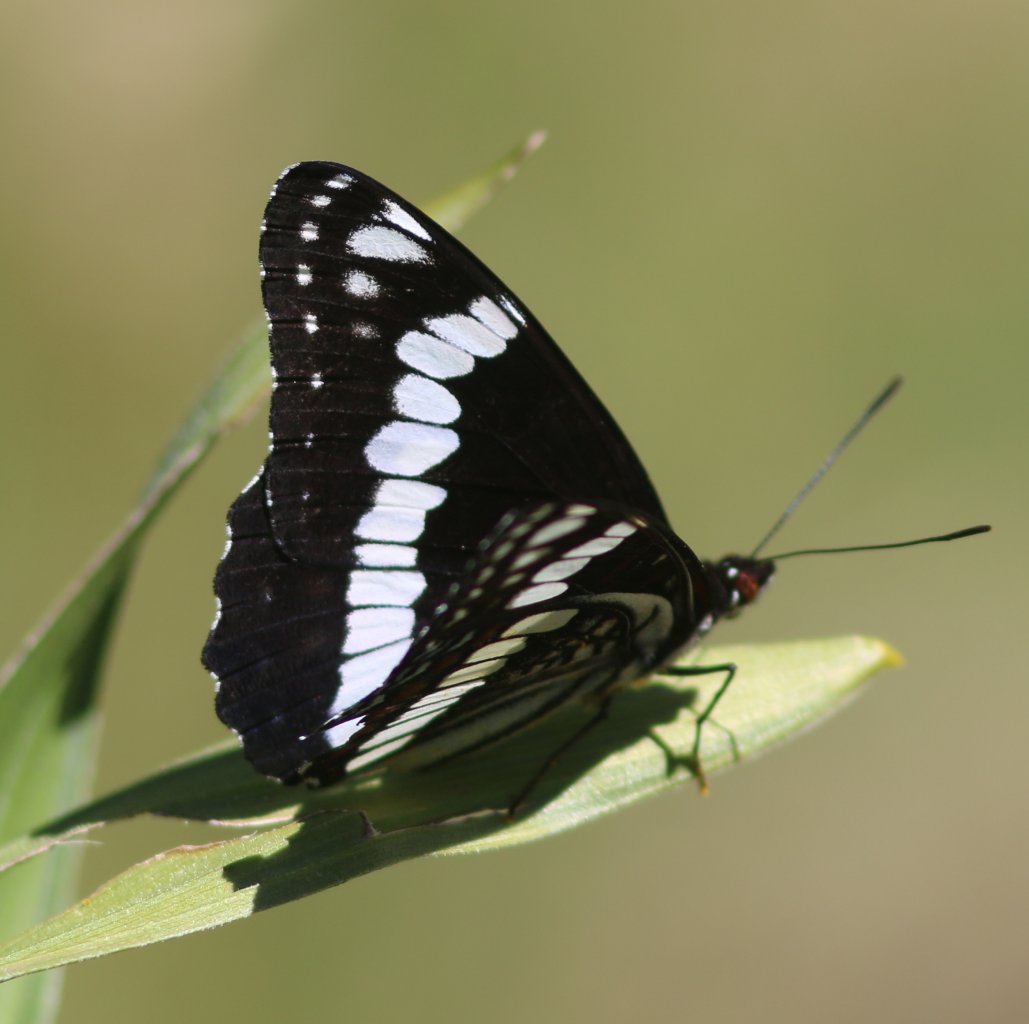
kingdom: Animalia
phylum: Arthropoda
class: Insecta
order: Lepidoptera
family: Nymphalidae
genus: Limenitis
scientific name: Limenitis weidemeyerii
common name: Weidemeyer's Admiral
